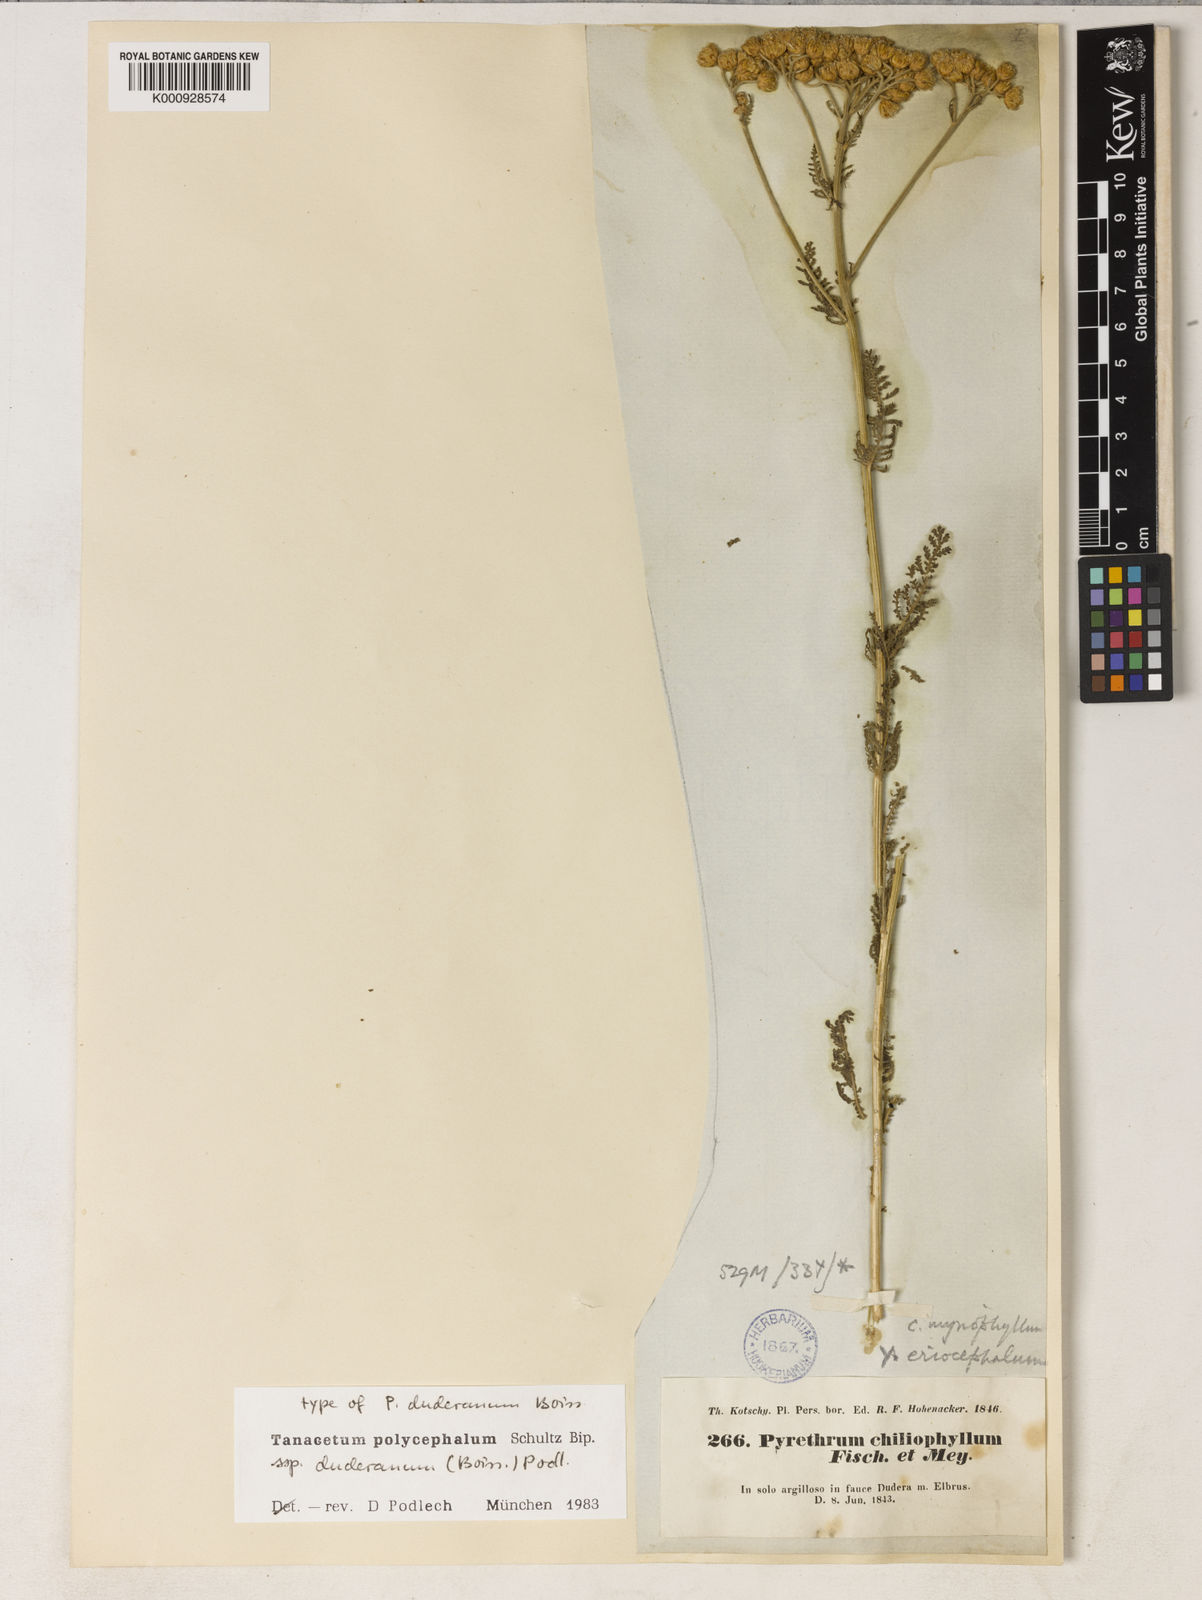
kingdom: Plantae
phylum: Tracheophyta
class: Magnoliopsida
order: Asterales
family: Asteraceae
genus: Tanacetum
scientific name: Tanacetum polycephalum
